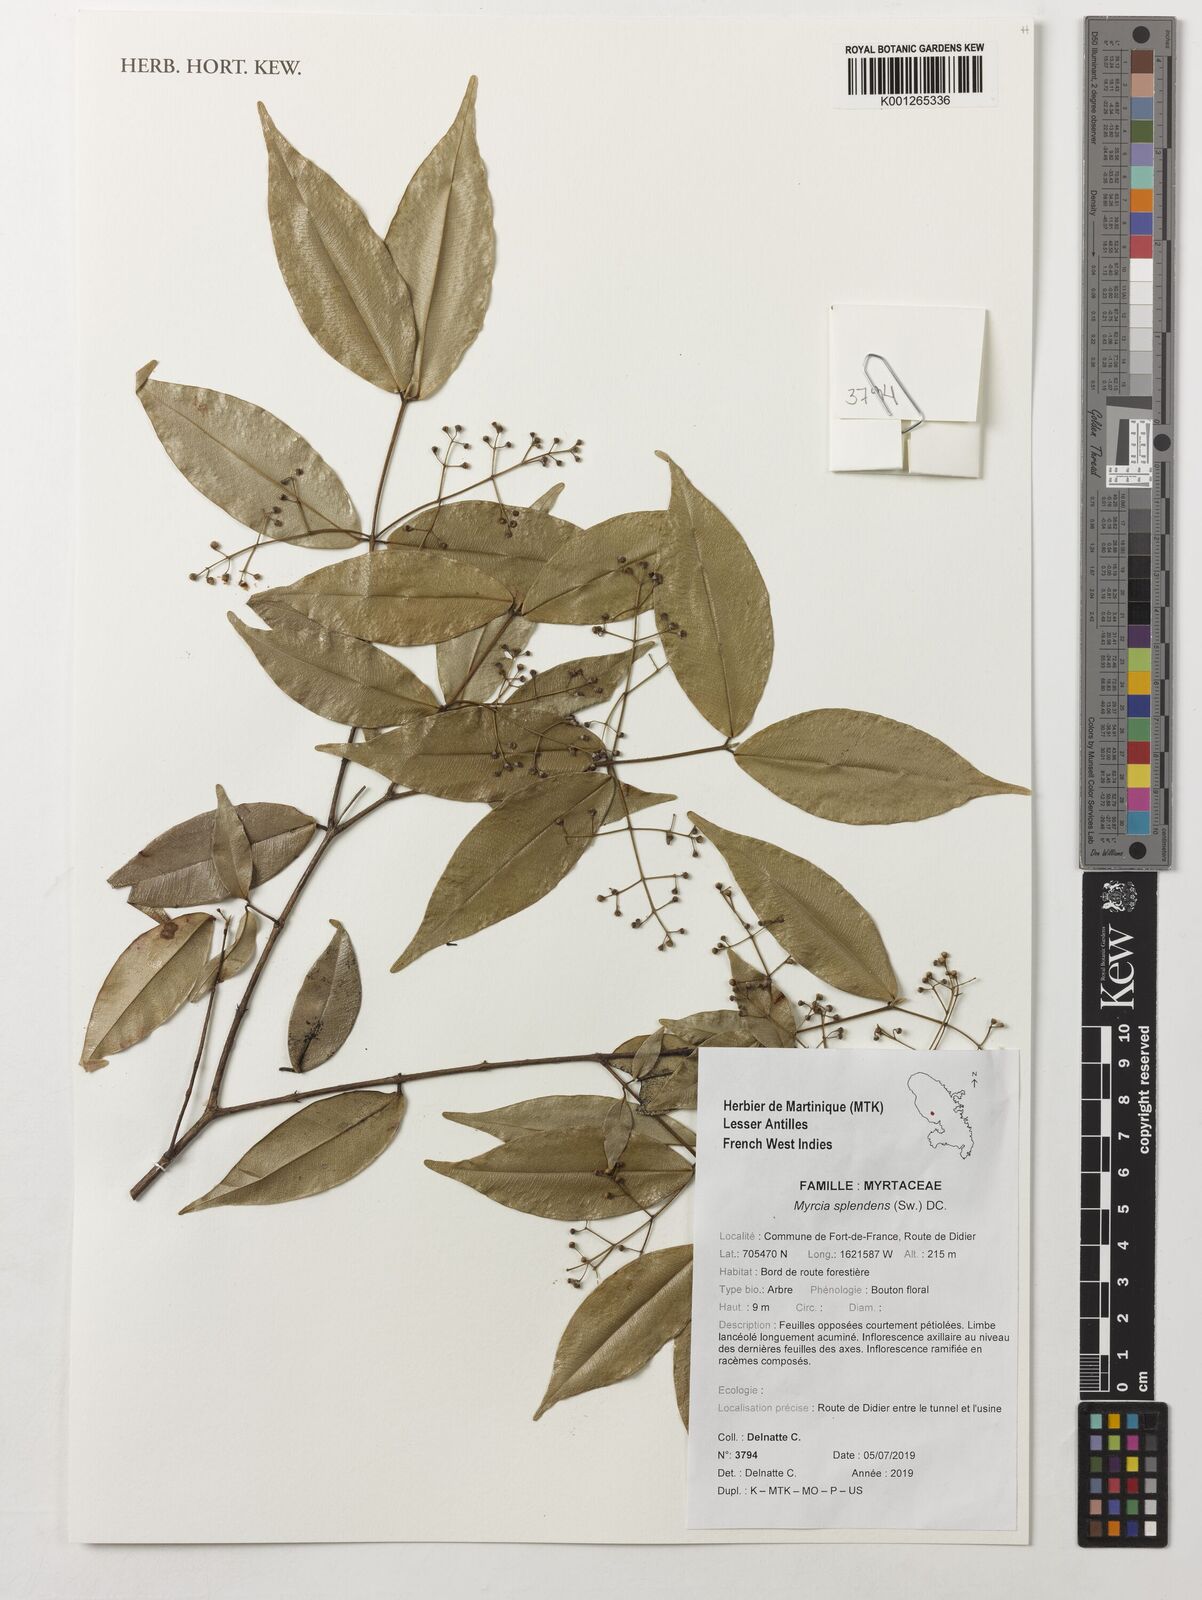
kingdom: Plantae
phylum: Tracheophyta
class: Magnoliopsida
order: Myrtales
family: Myrtaceae
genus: Myrcia
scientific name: Myrcia splendens
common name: Surinam cherry
